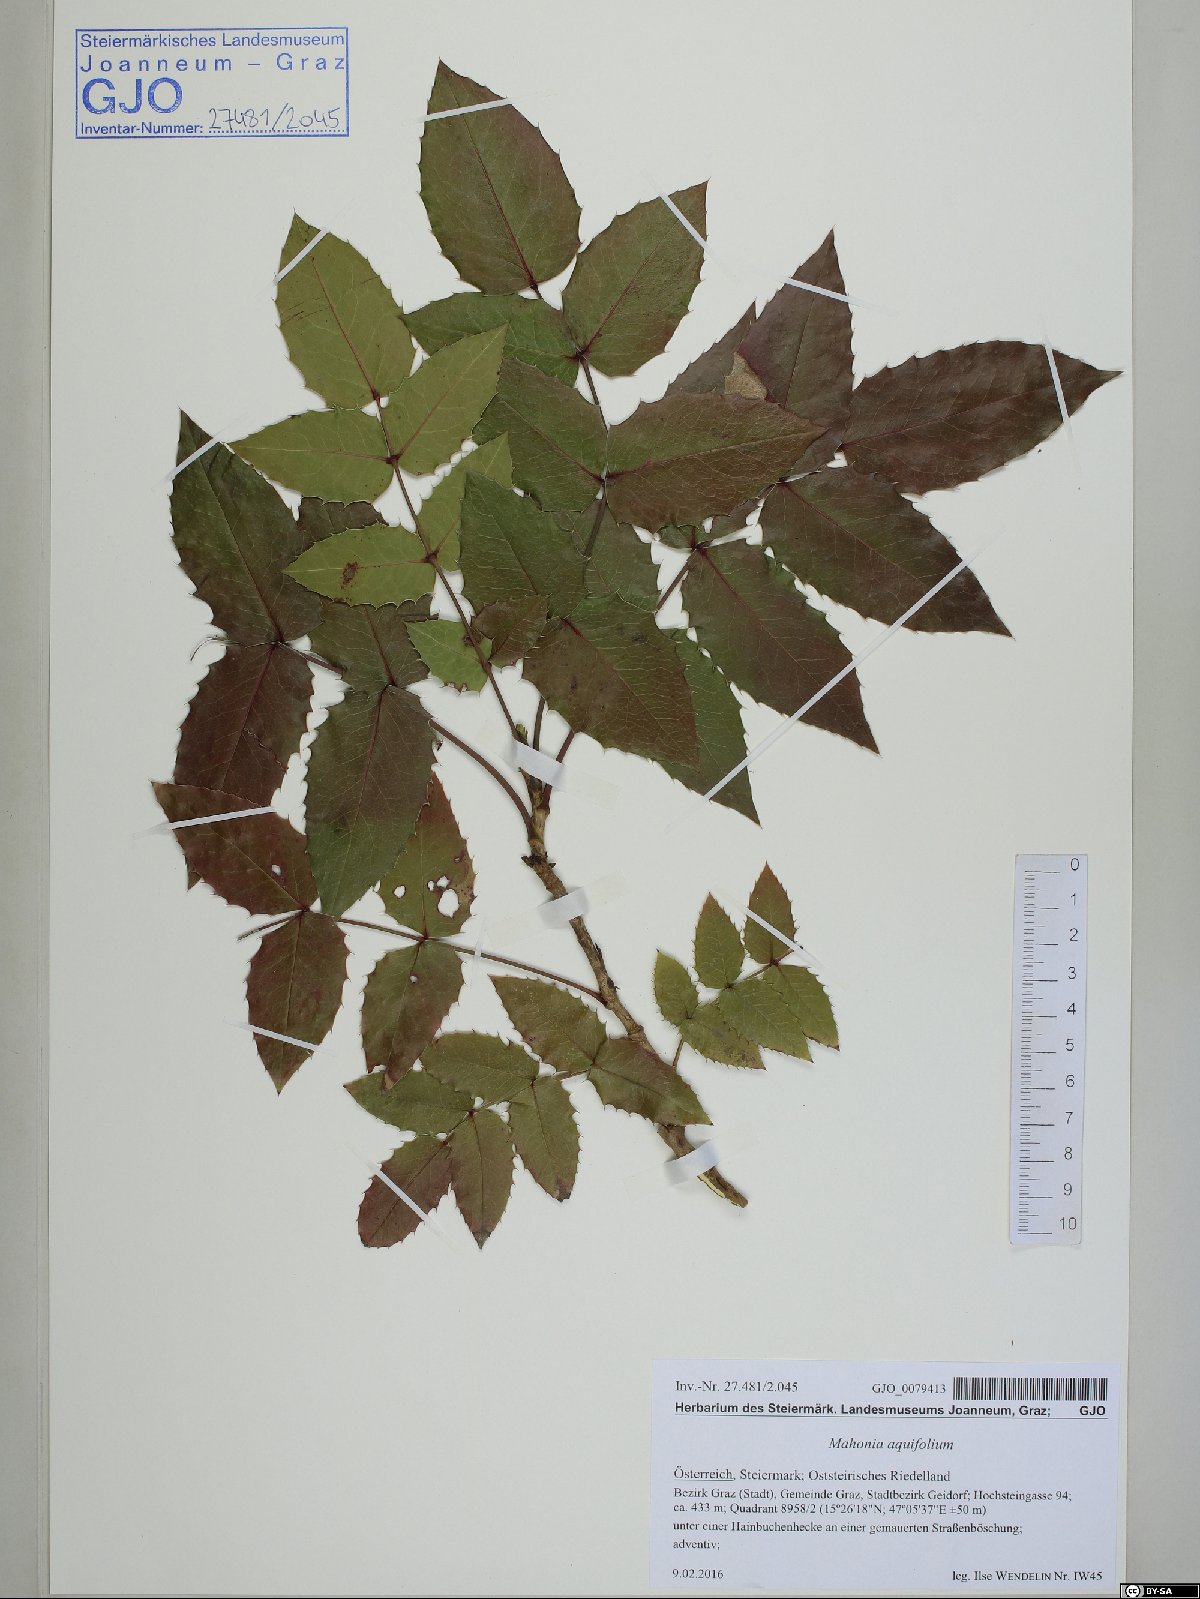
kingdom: Plantae
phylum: Tracheophyta
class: Magnoliopsida
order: Ranunculales
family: Berberidaceae
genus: Mahonia
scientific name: Mahonia aquifolium
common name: Oregon-grape
